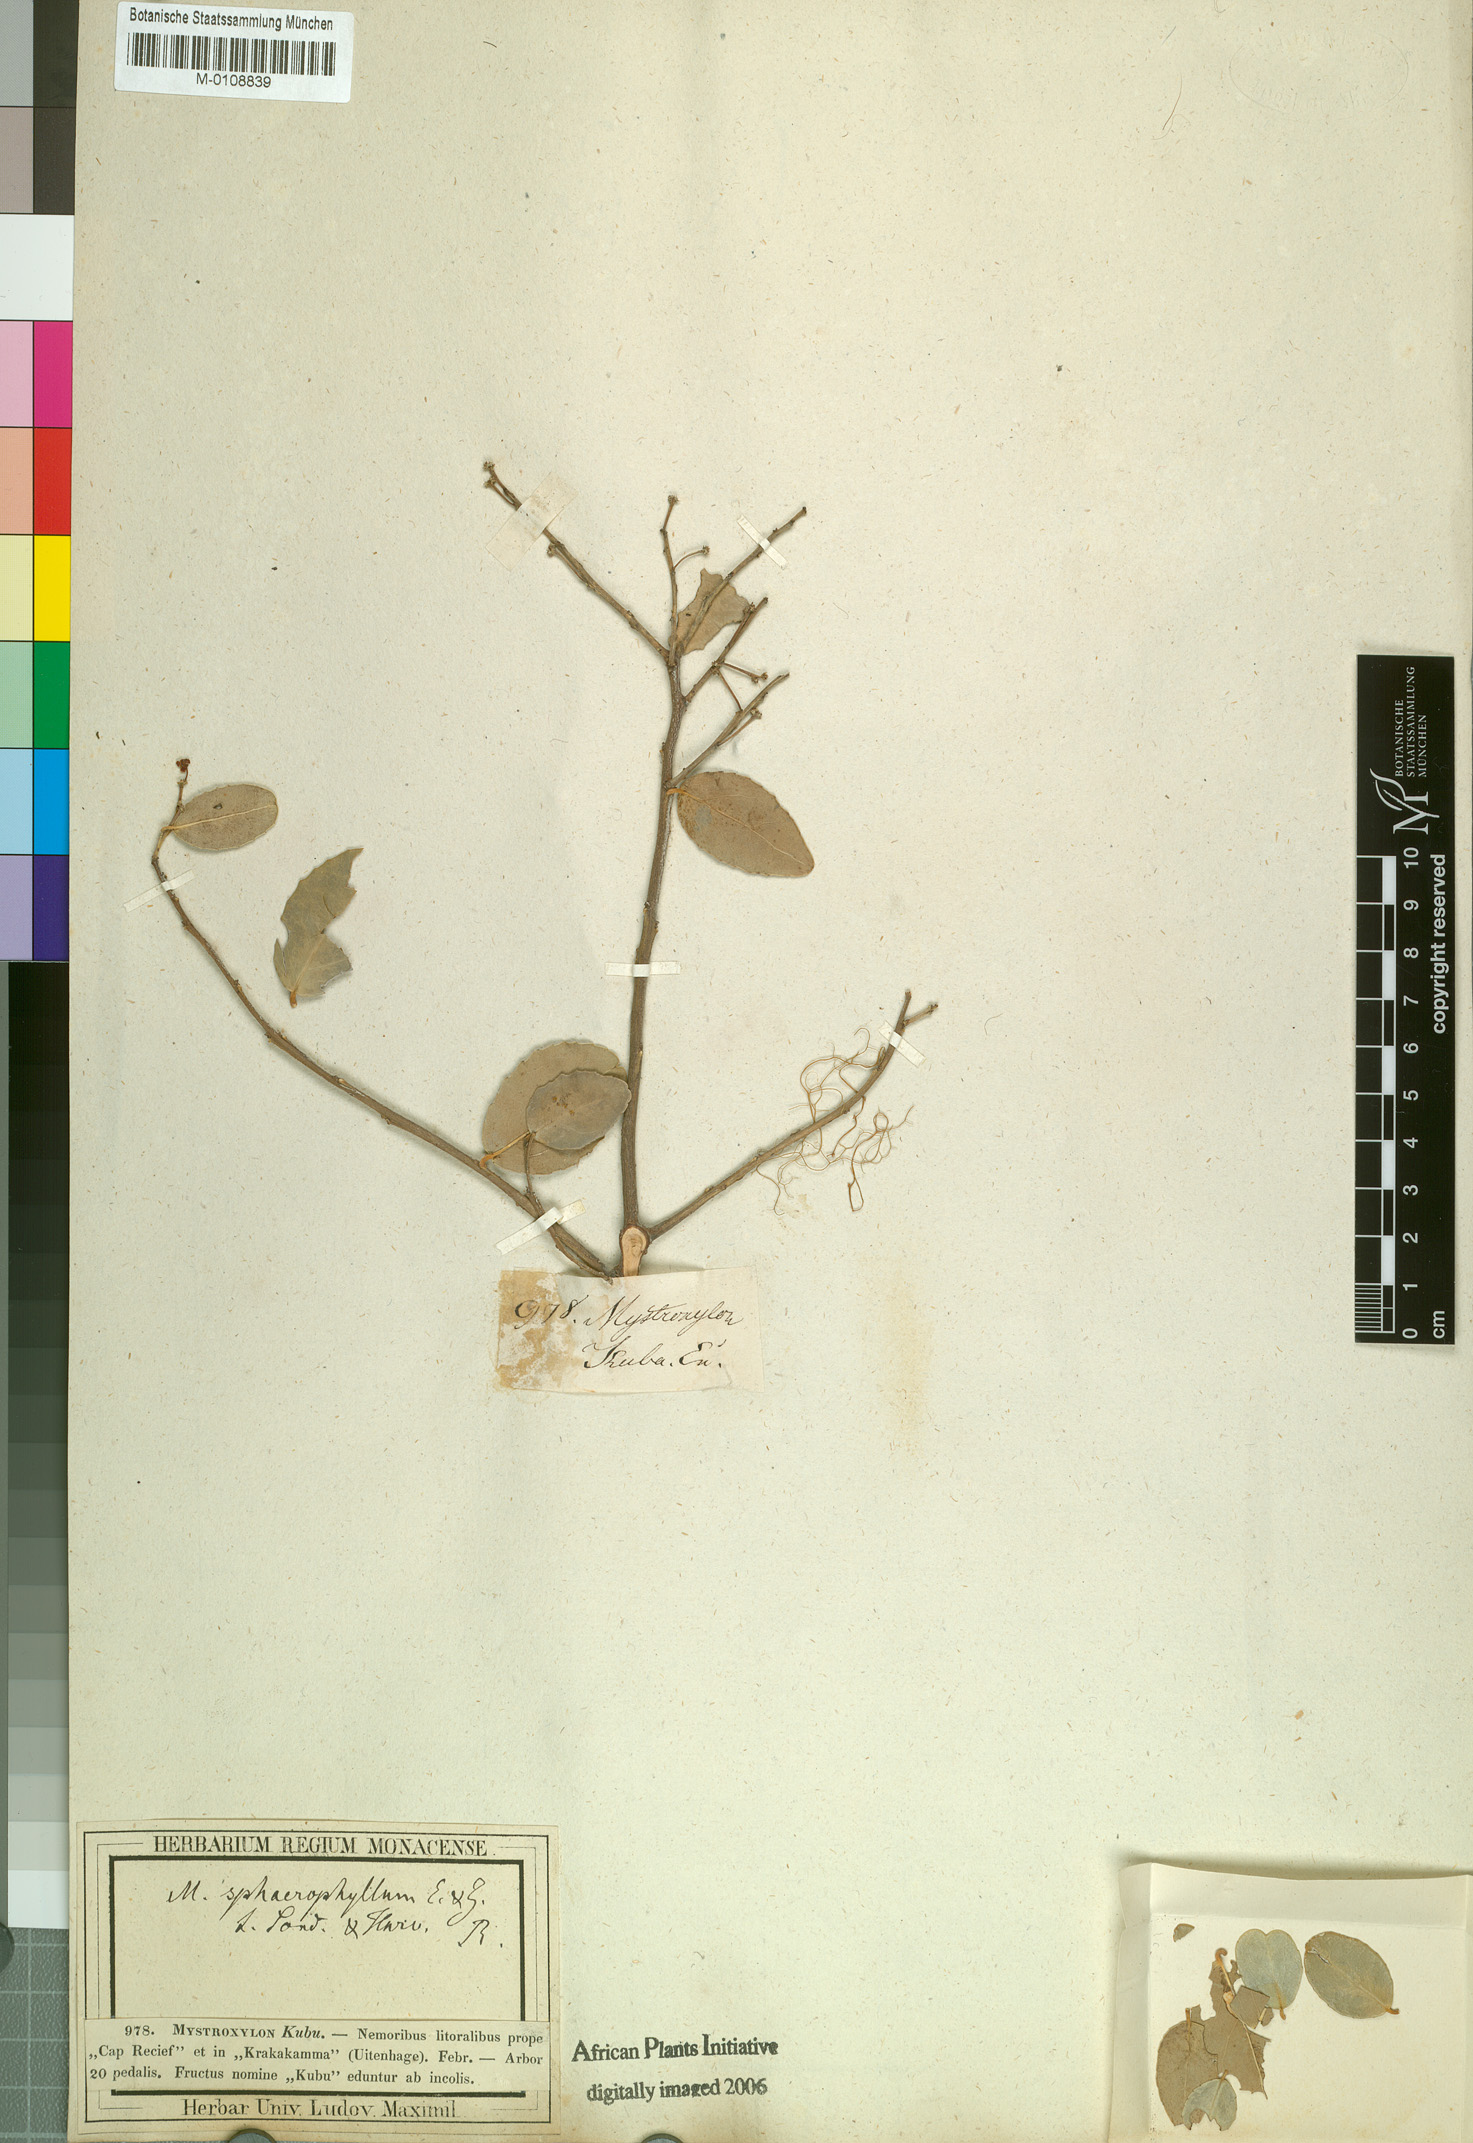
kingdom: Plantae
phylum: Tracheophyta
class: Magnoliopsida
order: Celastrales
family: Celastraceae
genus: Mystroxylon
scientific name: Mystroxylon aethiopicum
